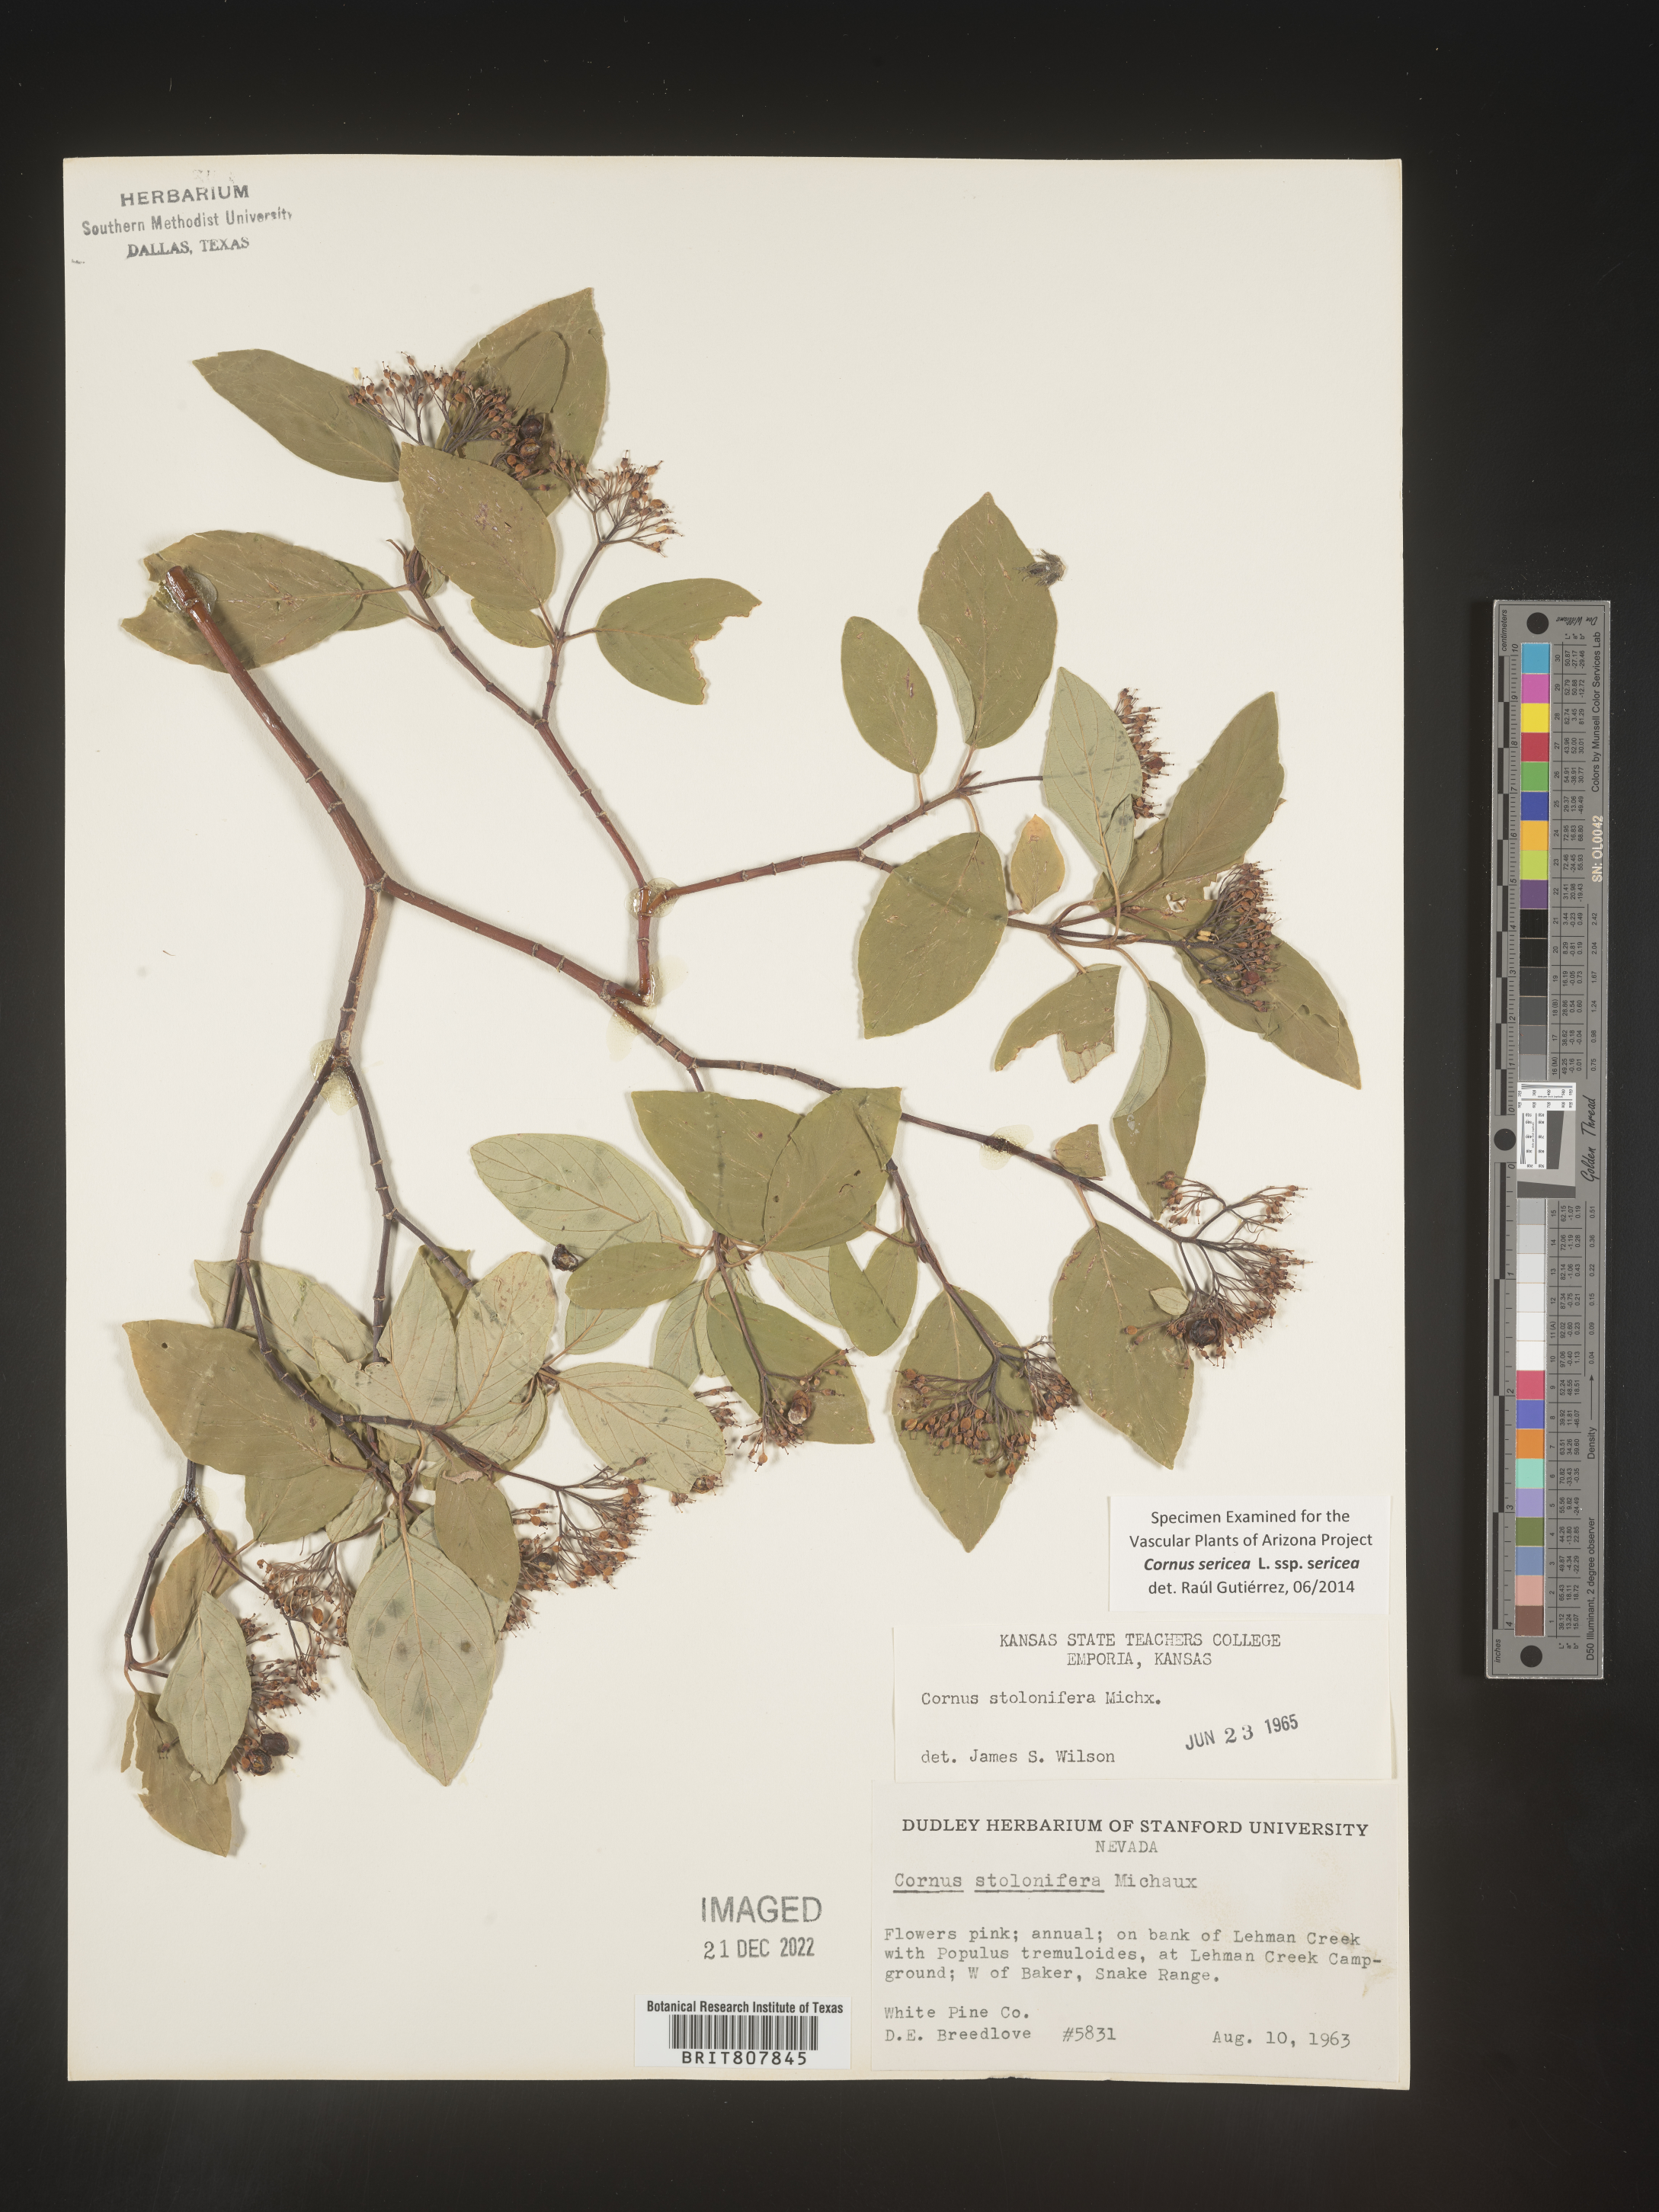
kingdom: Plantae
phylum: Tracheophyta
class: Magnoliopsida
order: Cornales
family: Cornaceae
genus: Cornus
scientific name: Cornus
